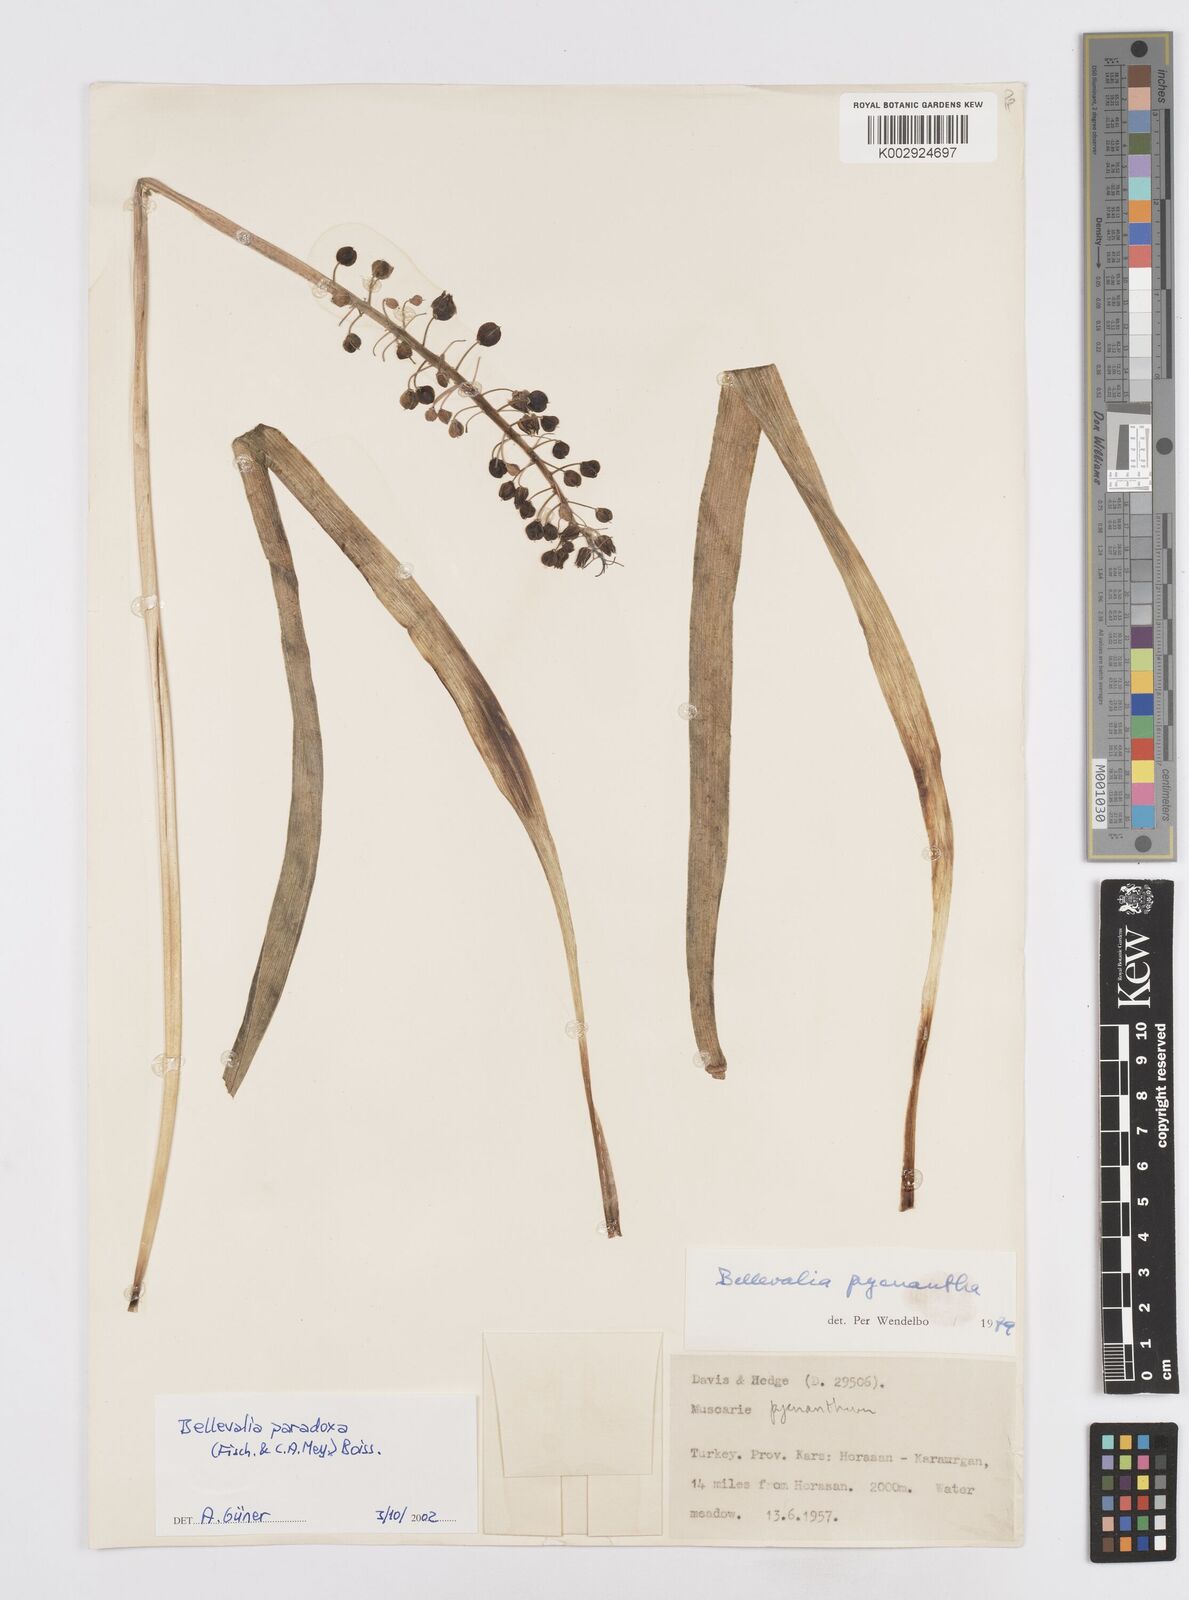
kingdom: Plantae
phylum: Tracheophyta
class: Liliopsida
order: Asparagales
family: Asparagaceae
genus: Bellevalia
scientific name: Bellevalia paradoxa
